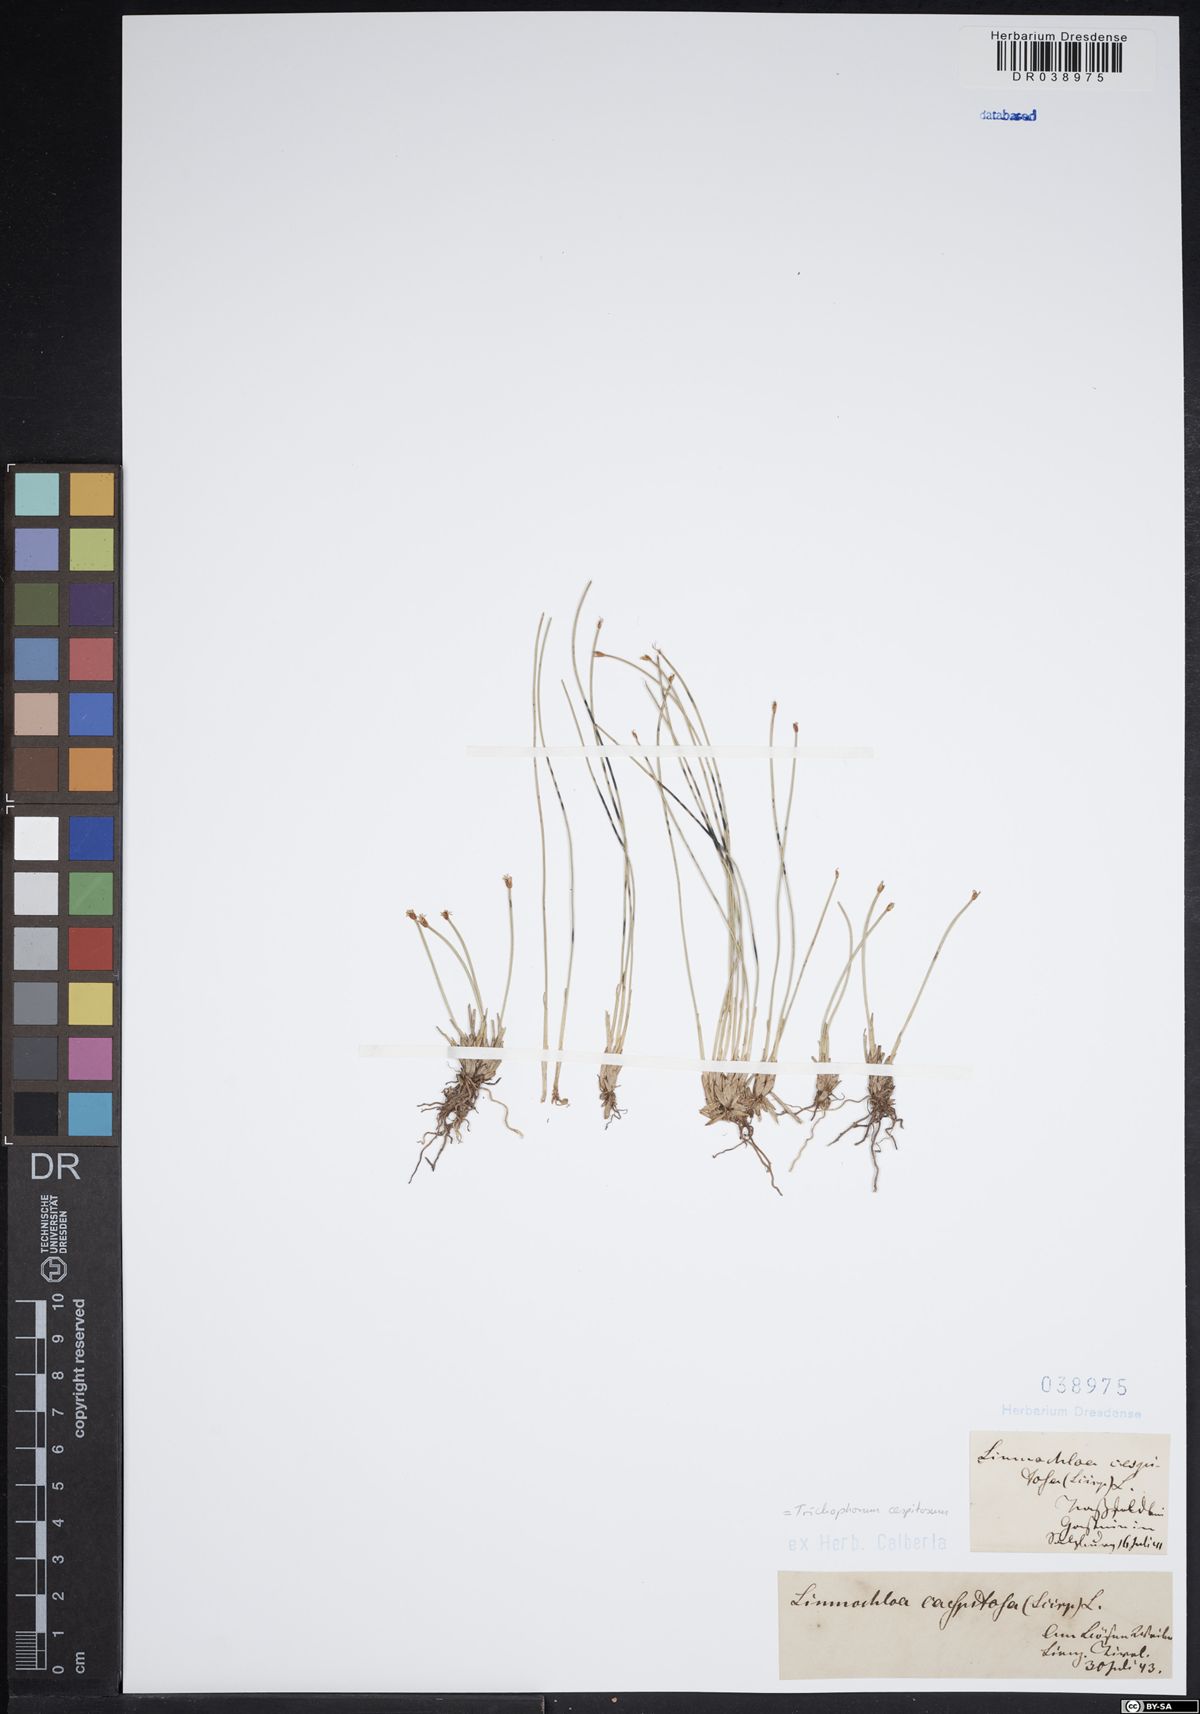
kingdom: Plantae
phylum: Tracheophyta
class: Liliopsida
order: Poales
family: Cyperaceae
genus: Trichophorum
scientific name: Trichophorum cespitosum
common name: Cespitose bulrush
